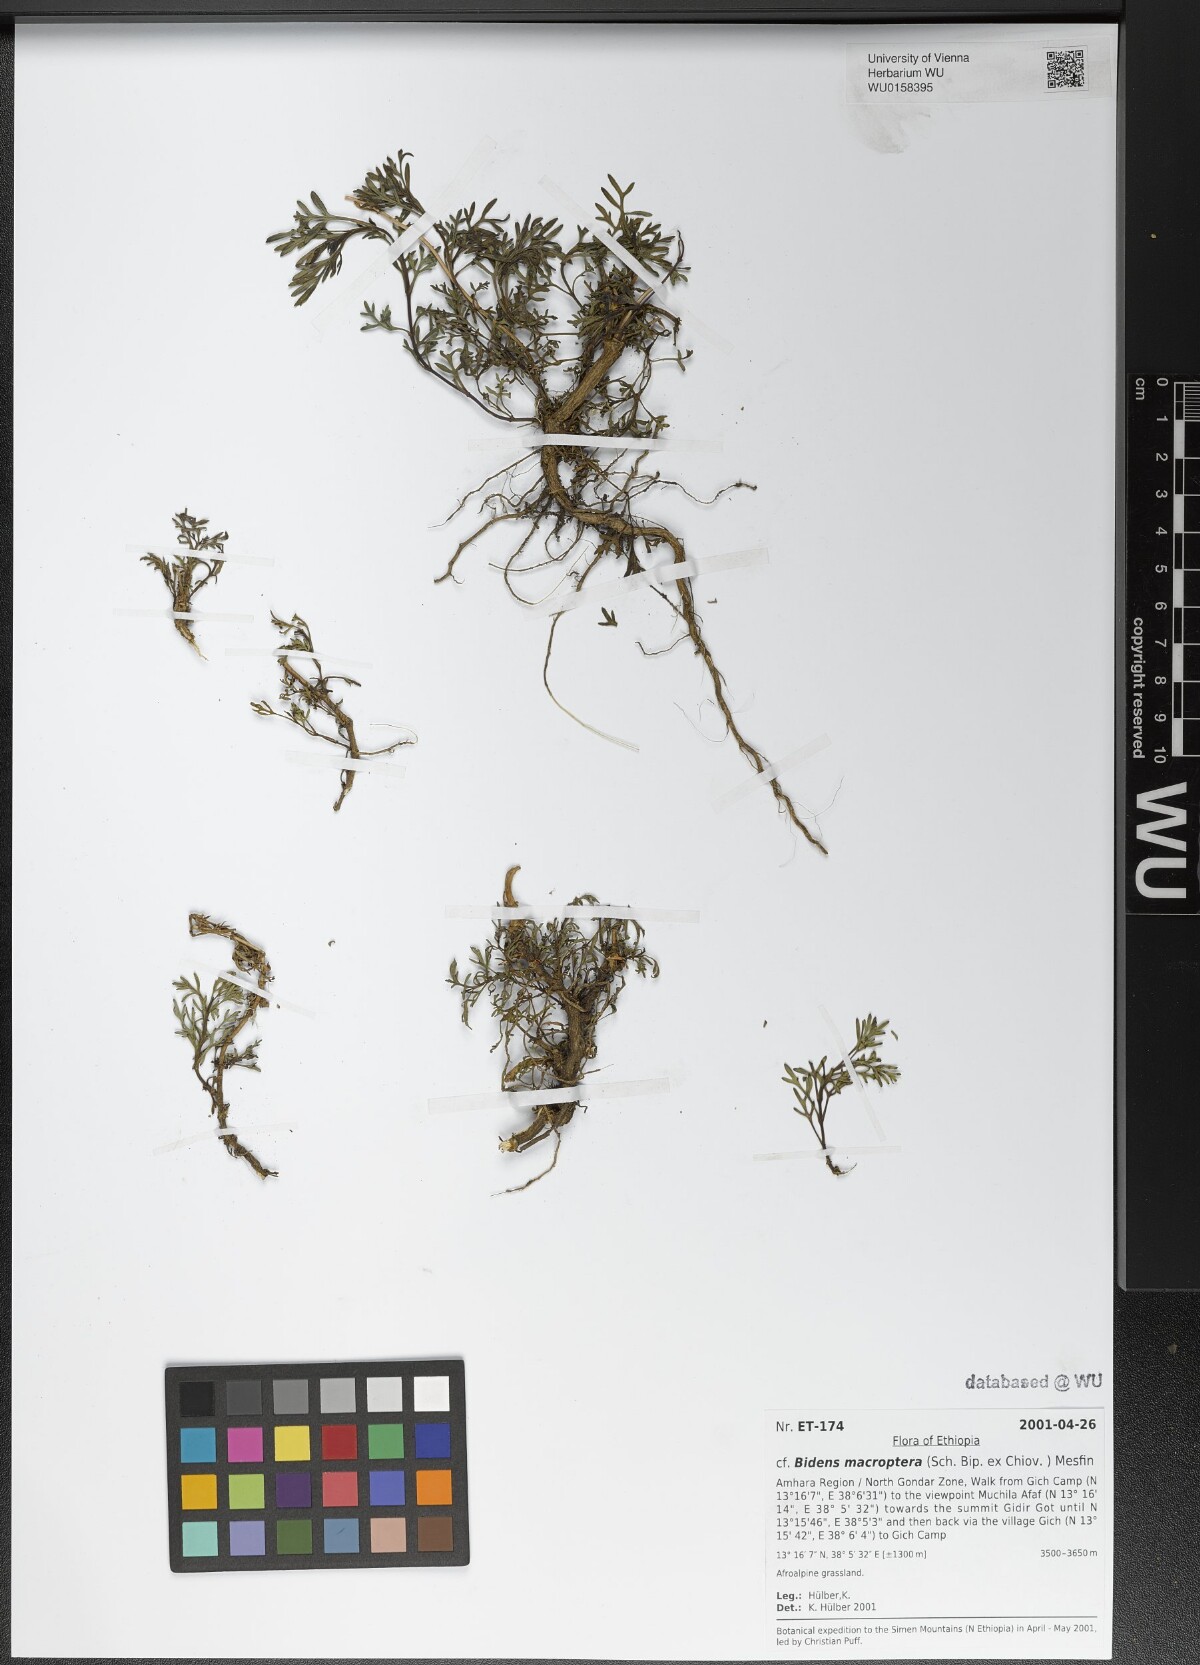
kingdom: Plantae
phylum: Tracheophyta
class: Magnoliopsida
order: Asterales
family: Asteraceae
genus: Bidens
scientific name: Bidens macroptera
